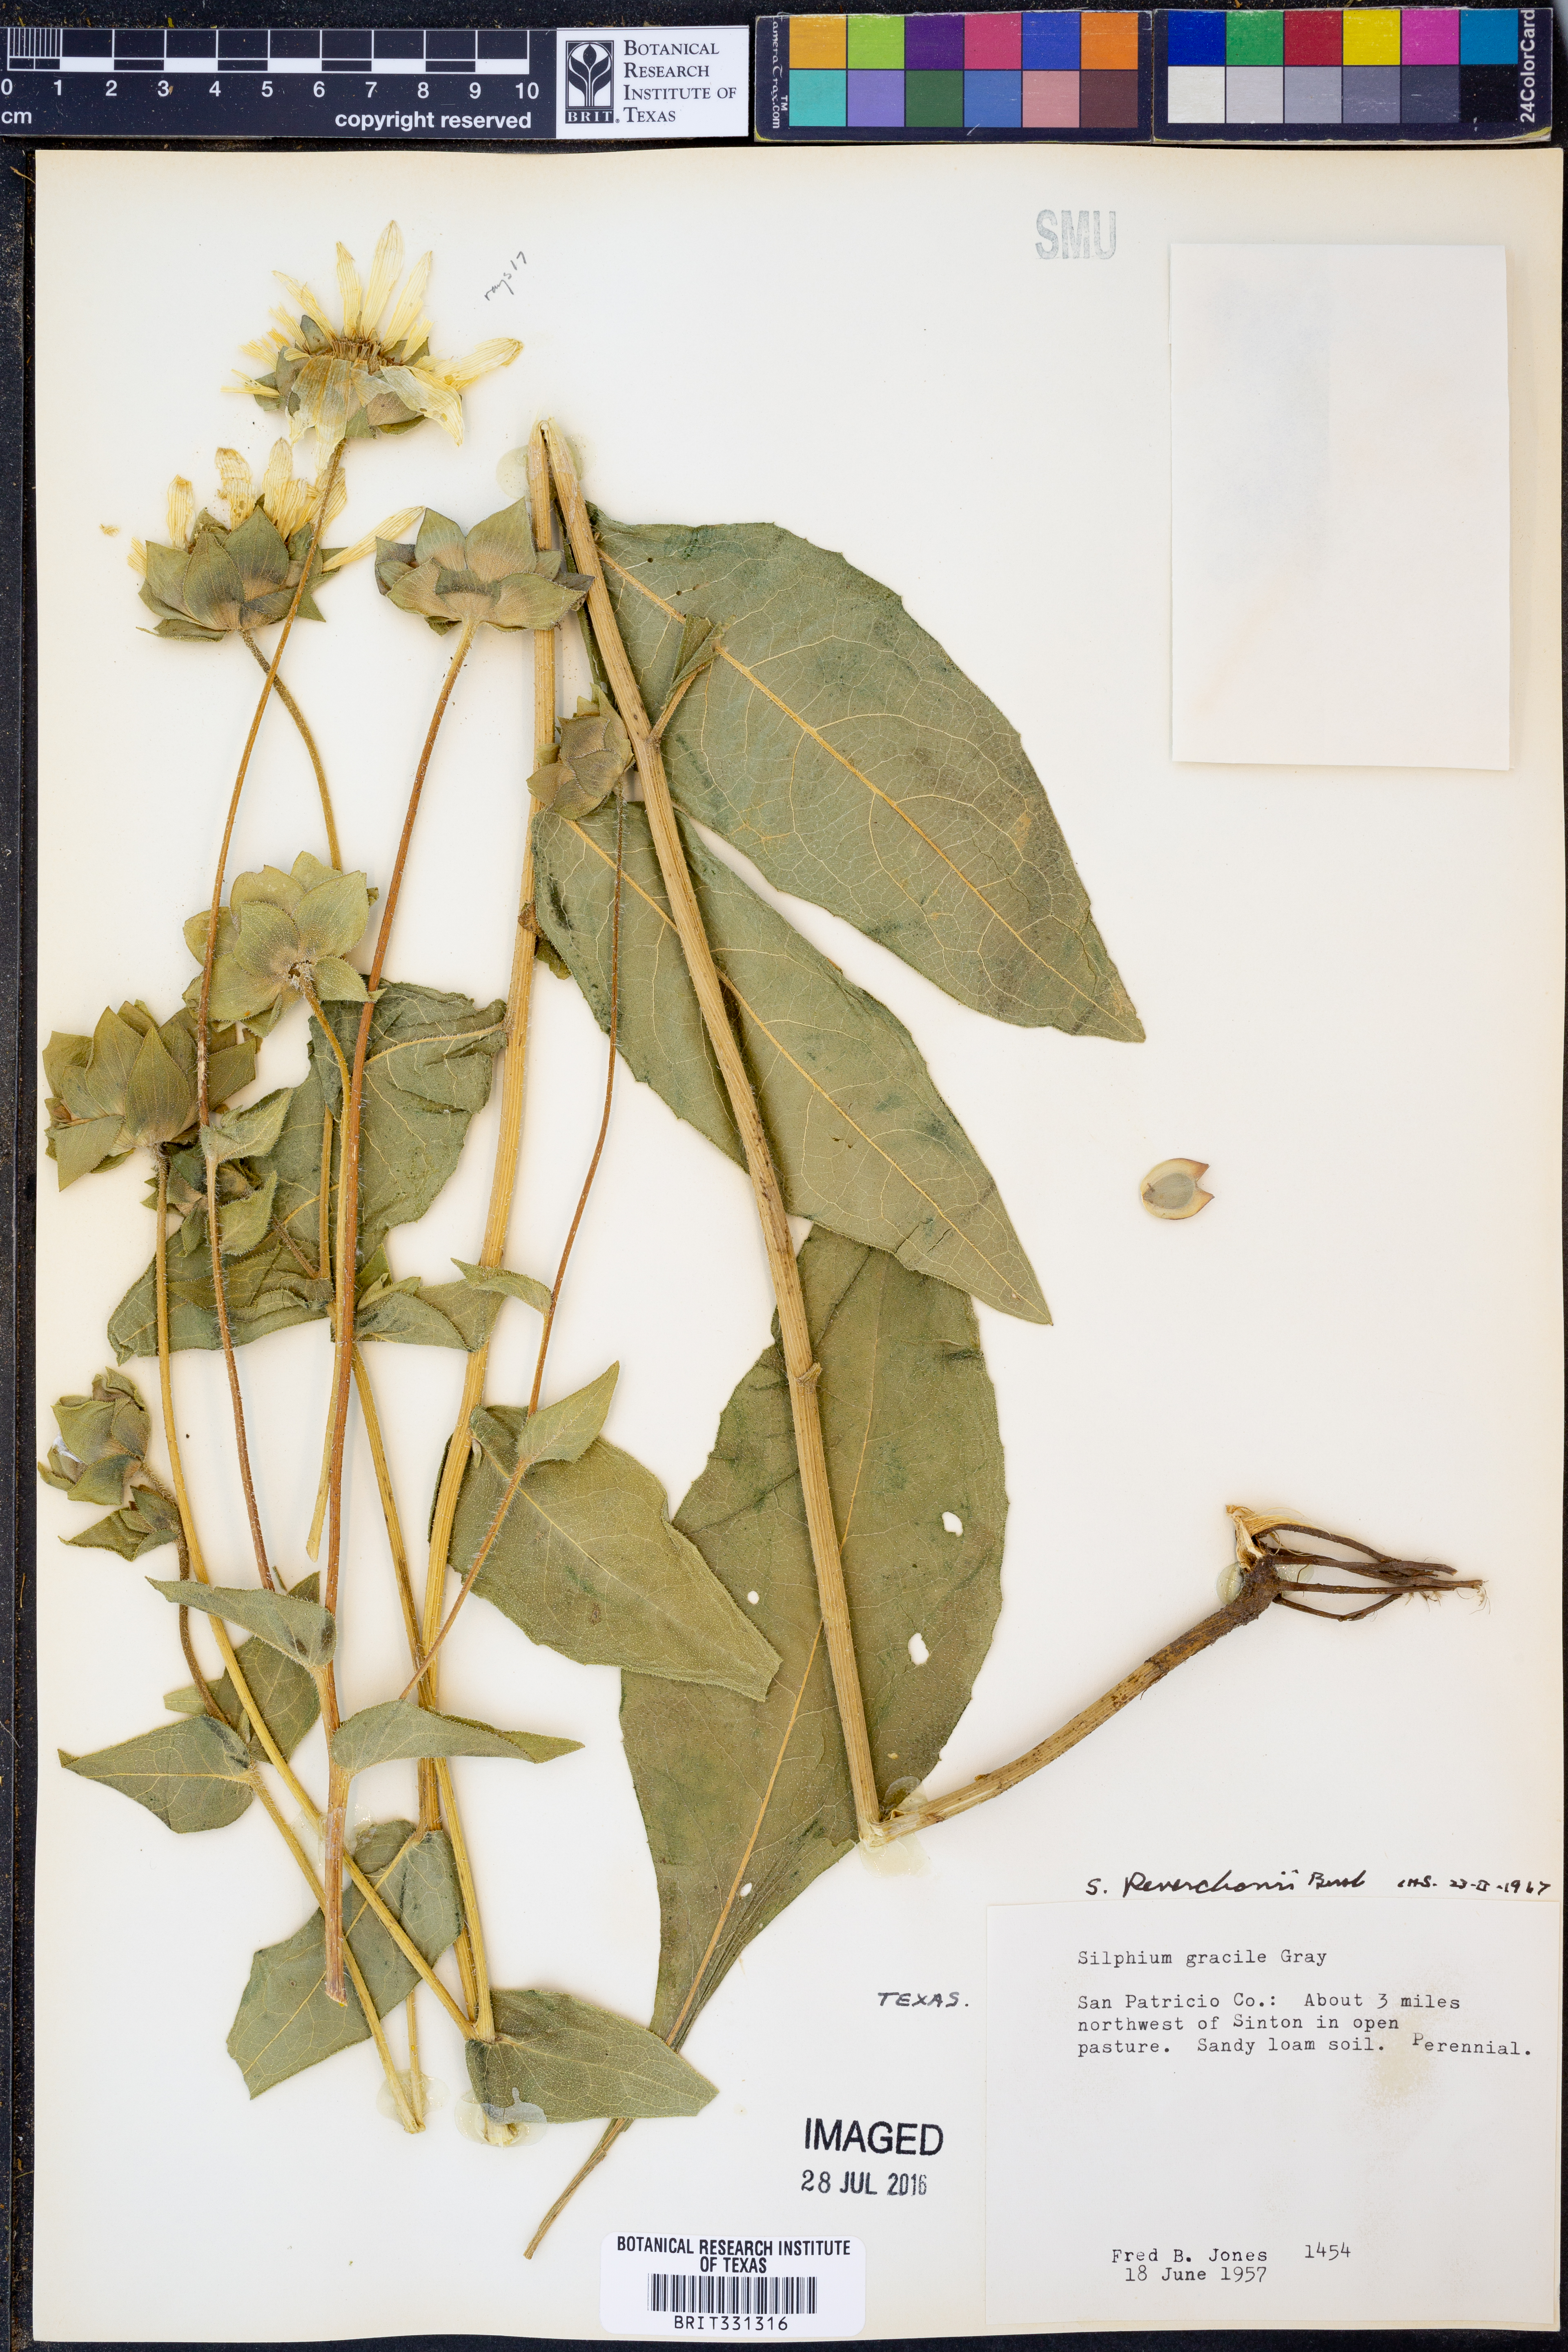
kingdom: Plantae
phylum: Tracheophyta
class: Magnoliopsida
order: Asterales
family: Asteraceae
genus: Silphium
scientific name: Silphium radula
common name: Roughleaf rosinweed
